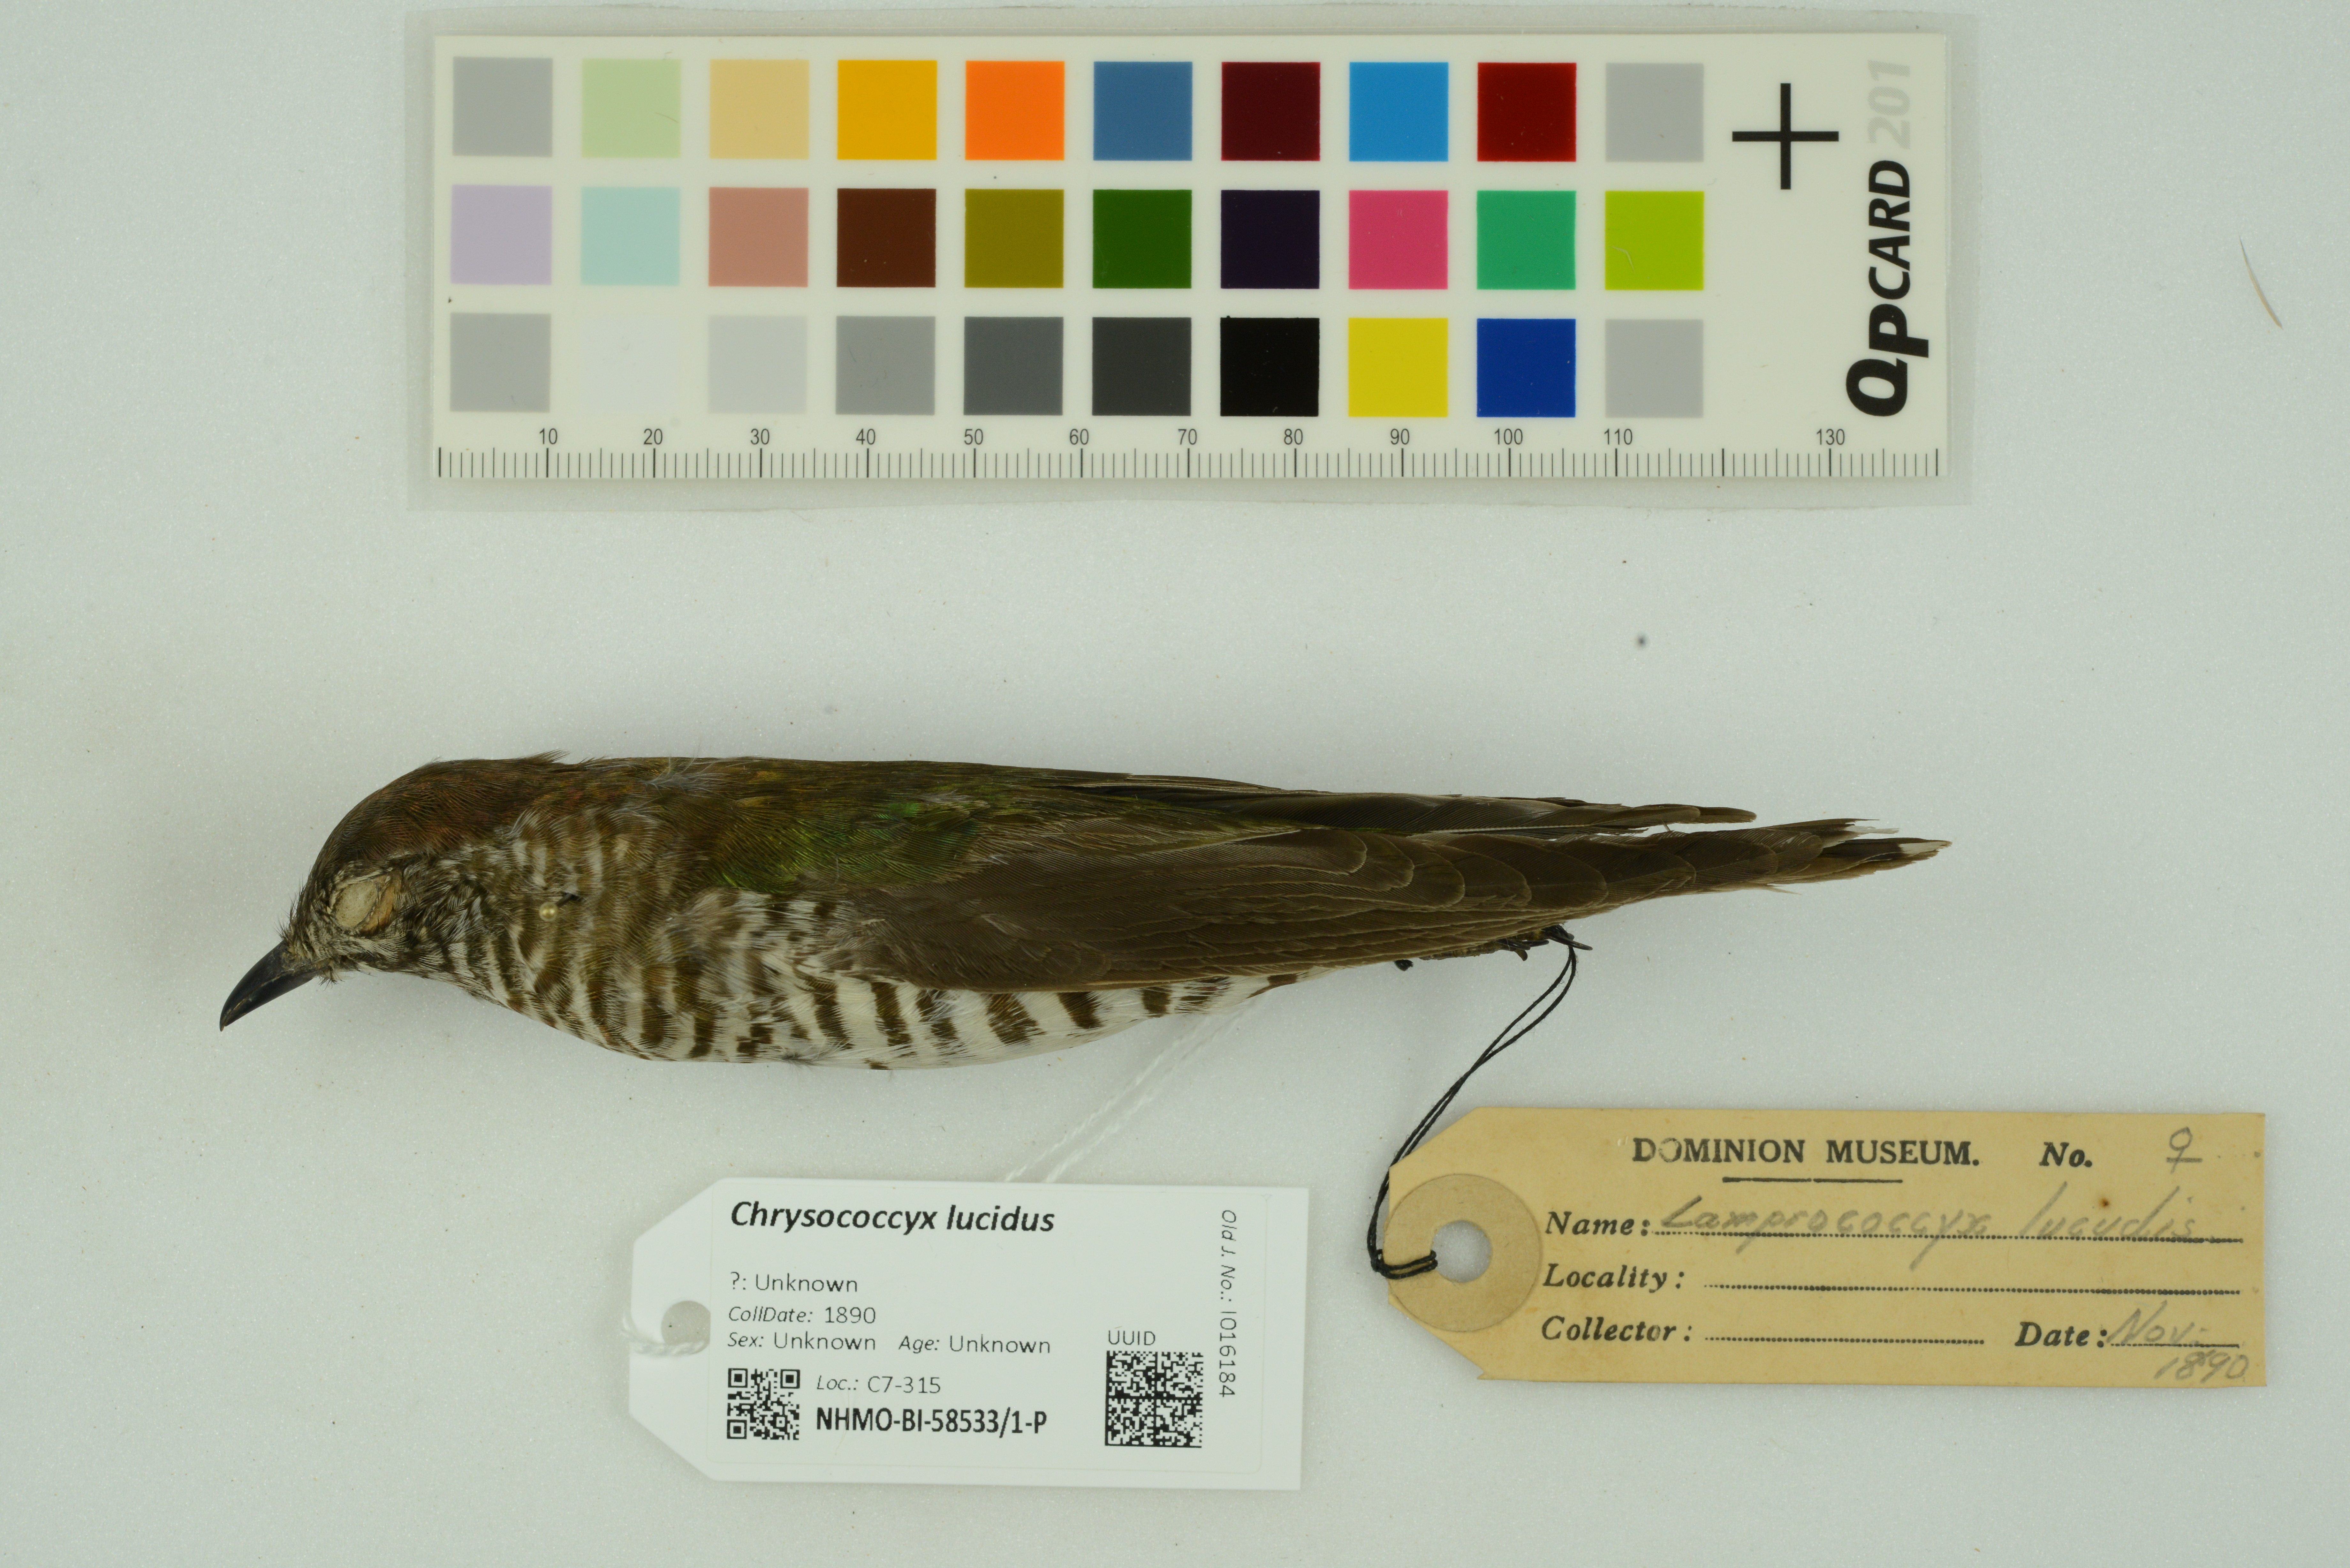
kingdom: Animalia
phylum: Chordata
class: Aves
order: Cuculiformes
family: Cuculidae
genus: Chrysococcyx
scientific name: Chrysococcyx lucidus
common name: Shining bronze cuckoo
